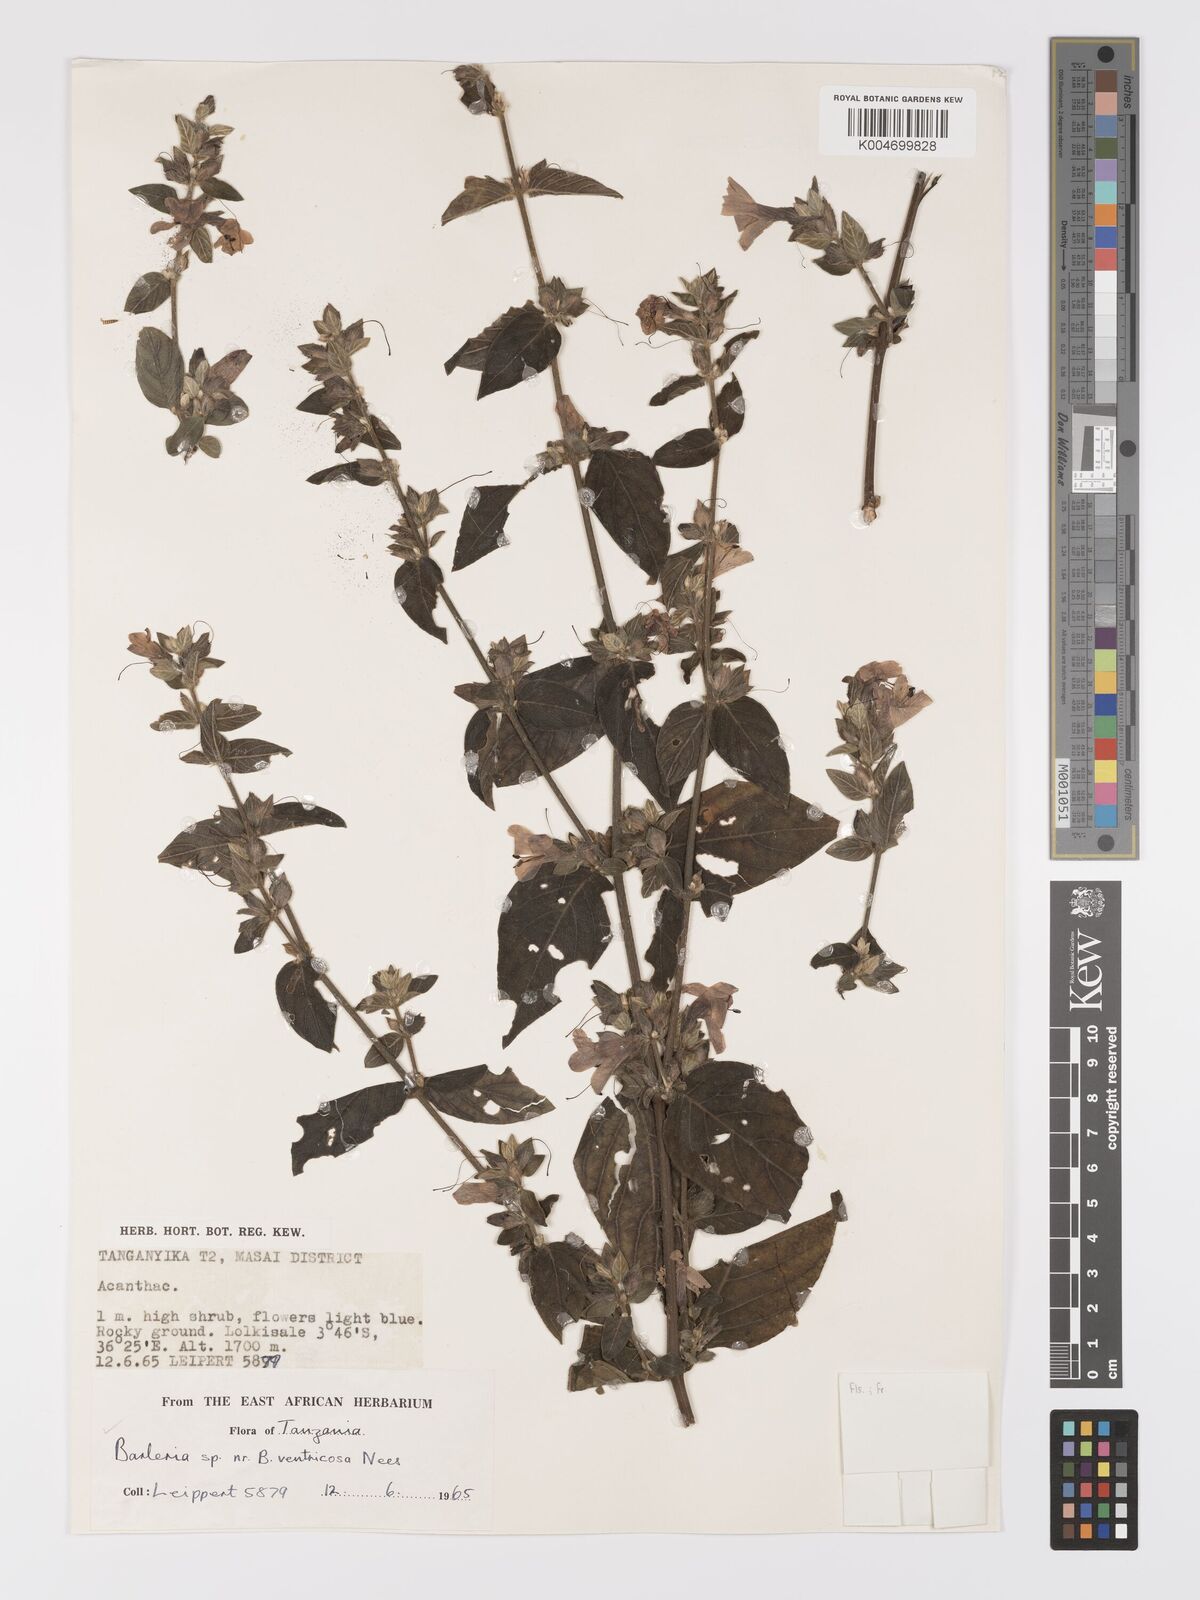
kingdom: Plantae
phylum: Tracheophyta
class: Magnoliopsida
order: Lamiales
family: Acanthaceae
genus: Barleria
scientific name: Barleria ventricosa
